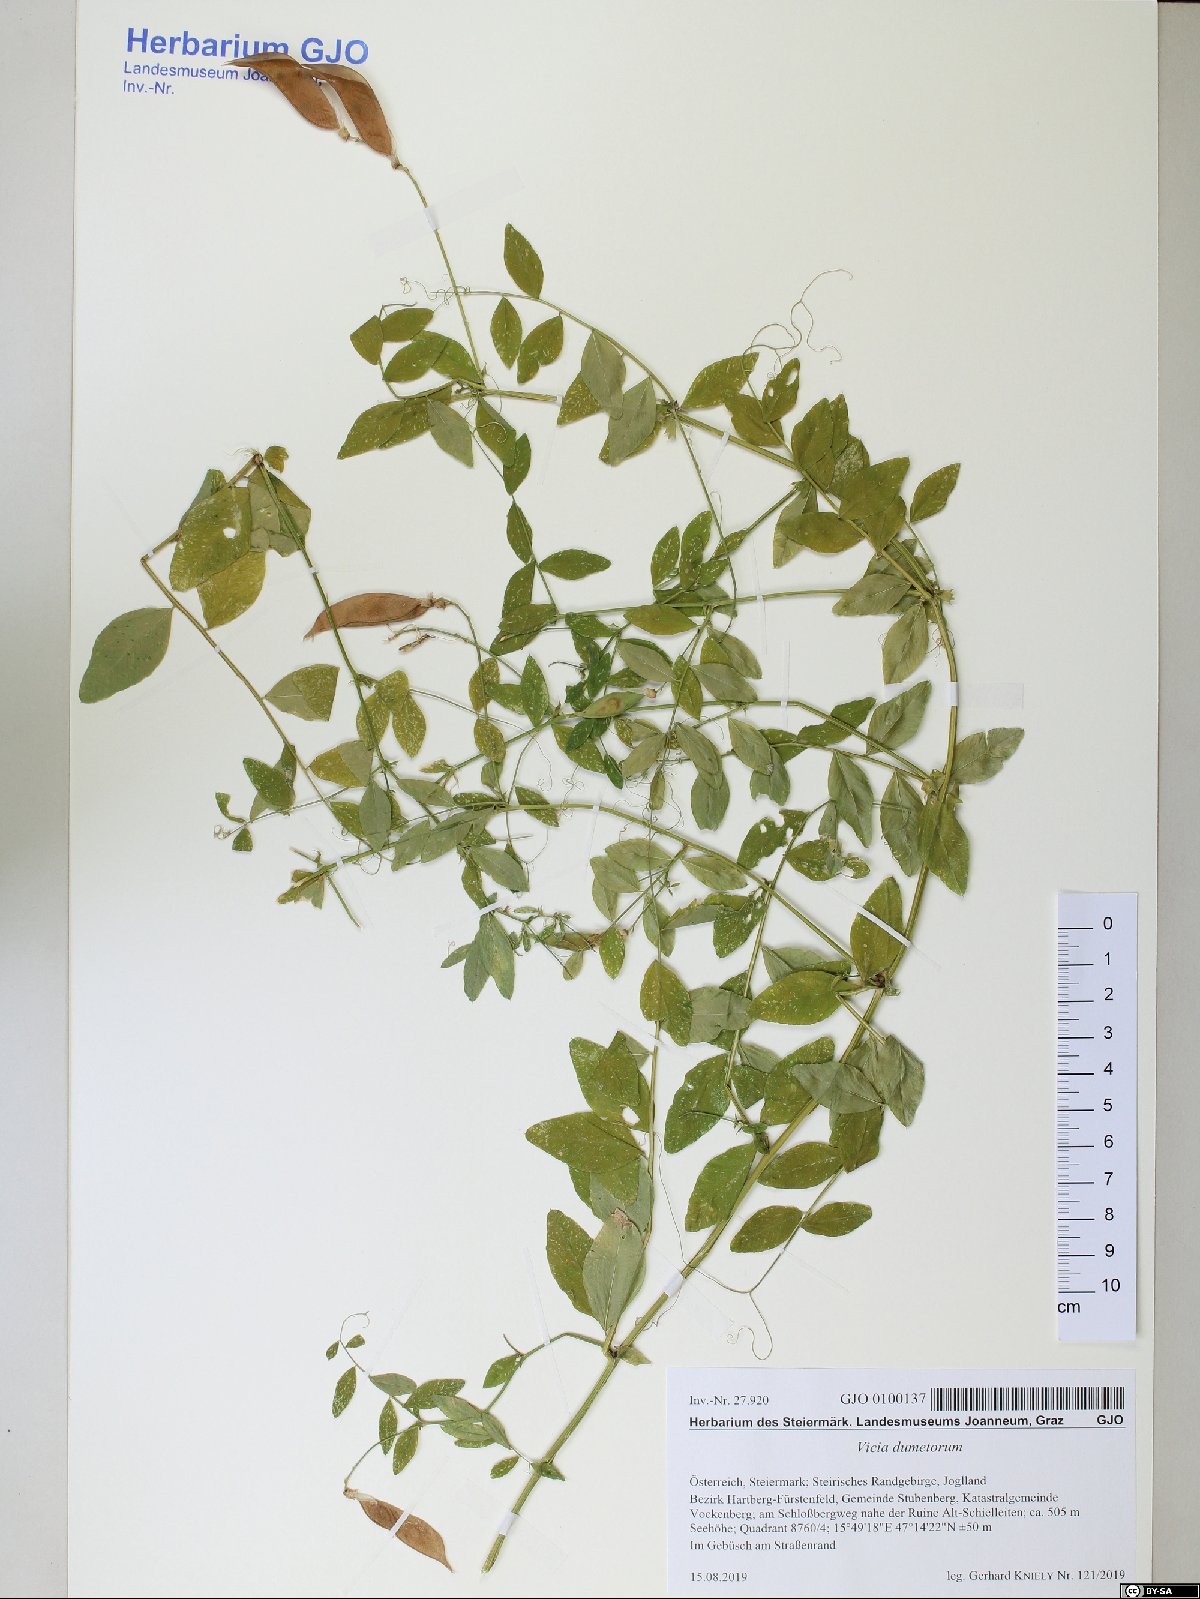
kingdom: Plantae
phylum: Tracheophyta
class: Magnoliopsida
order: Fabales
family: Fabaceae
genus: Vicia
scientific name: Vicia dumetorum
